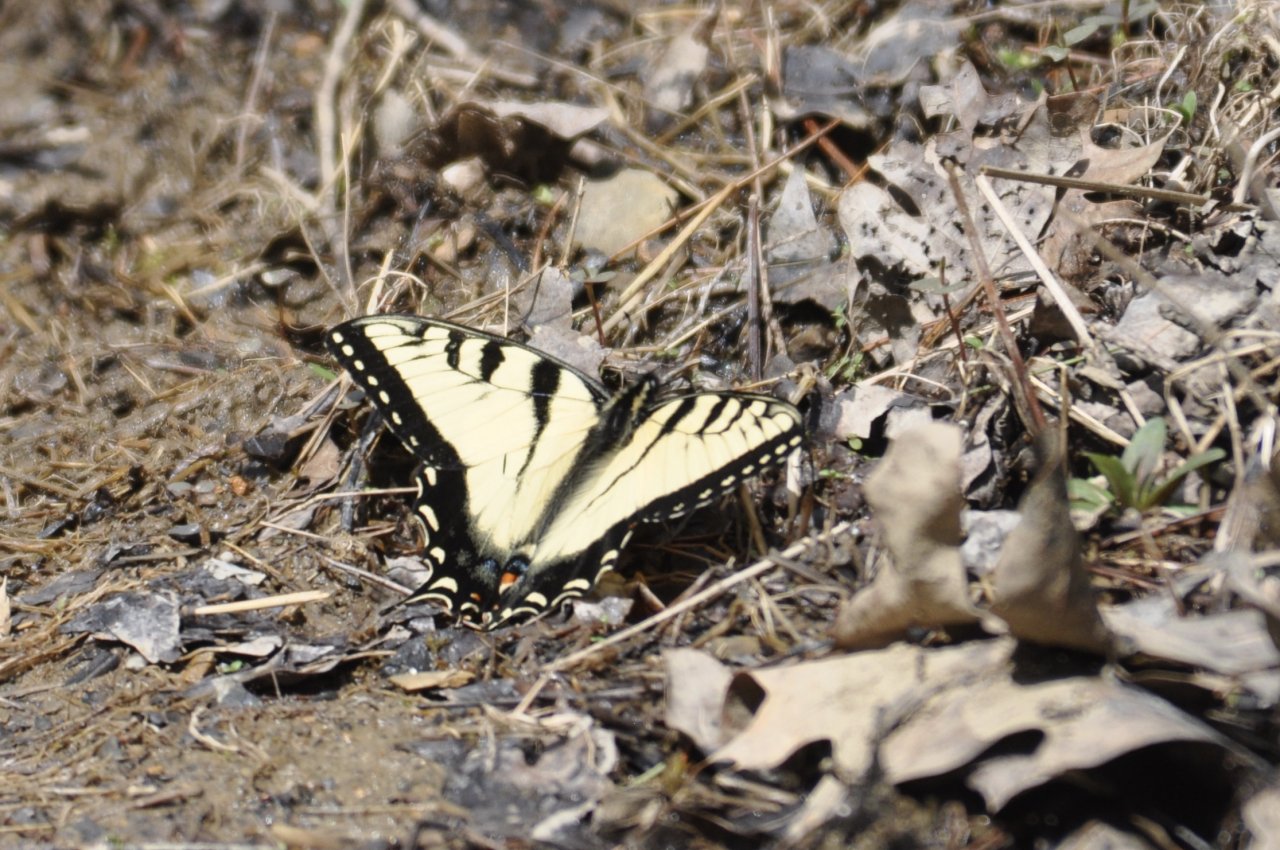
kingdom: Animalia
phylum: Arthropoda
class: Insecta
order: Lepidoptera
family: Papilionidae
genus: Pterourus
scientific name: Pterourus glaucus
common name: Eastern Tiger Swallowtail
